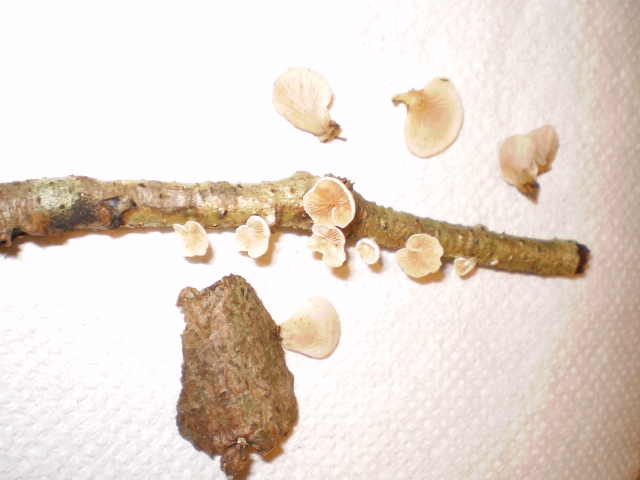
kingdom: Fungi
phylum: Basidiomycota
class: Agaricomycetes
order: Agaricales
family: Crepidotaceae
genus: Crepidotus
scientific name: Crepidotus variabilis
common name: forskelligformet muslingesvamp
